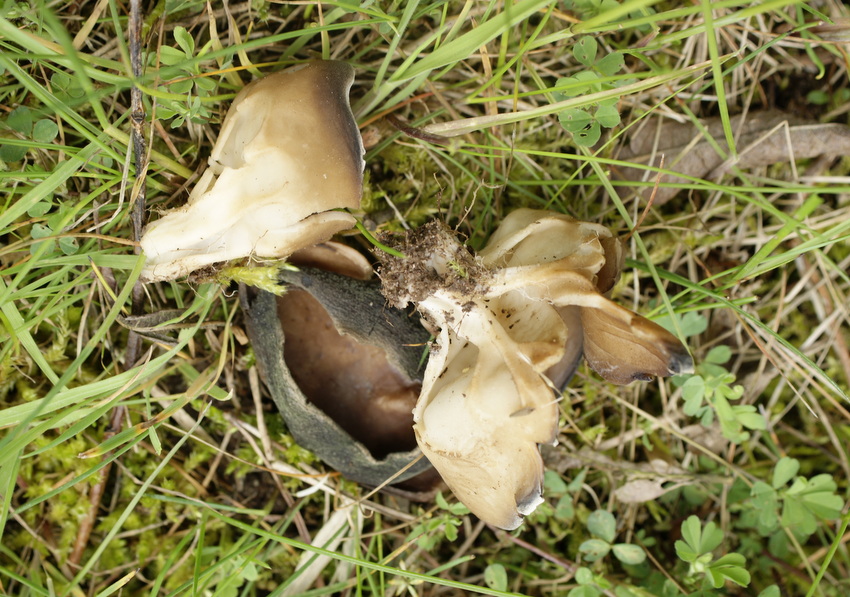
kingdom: Fungi
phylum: Ascomycota
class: Pezizomycetes
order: Pezizales
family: Helvellaceae
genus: Helvella
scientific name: Helvella acetabulum
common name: pokal-foldhat
